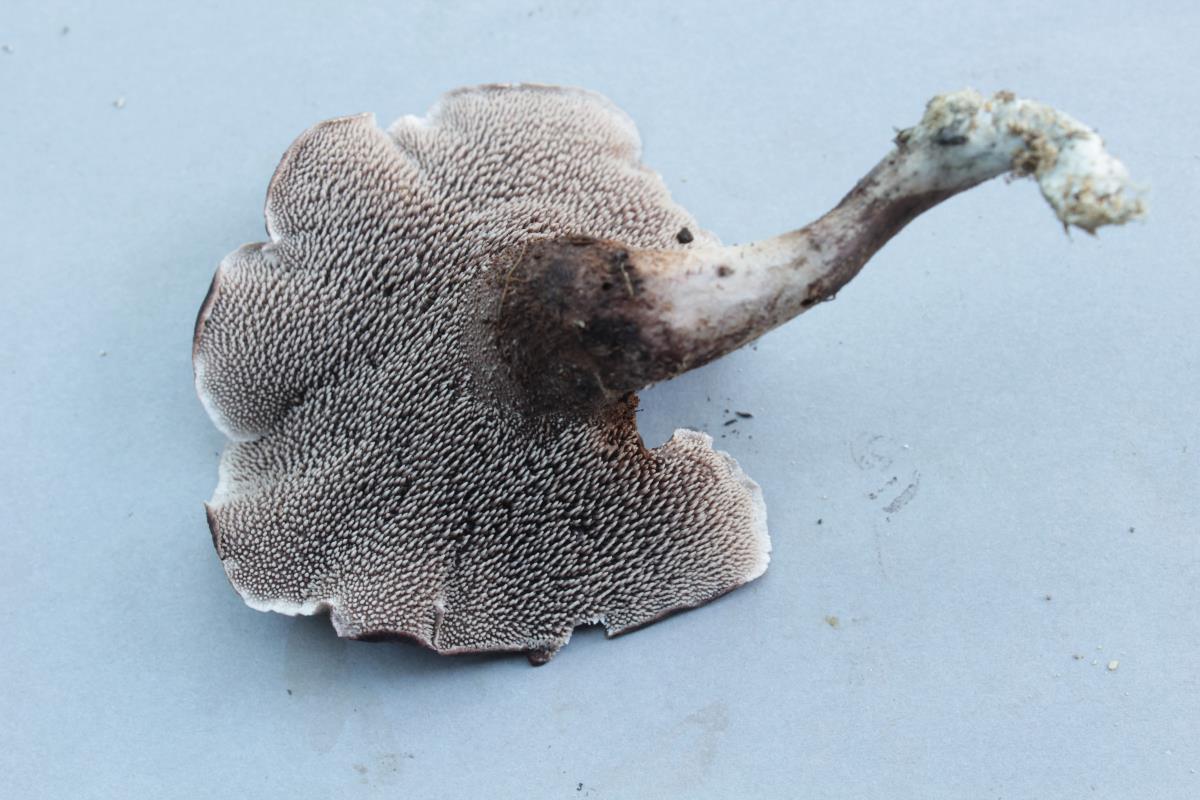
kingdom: Fungi
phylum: Basidiomycota
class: Agaricomycetes
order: Thelephorales
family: Bankeraceae
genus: Hydnellum
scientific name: Hydnellum
